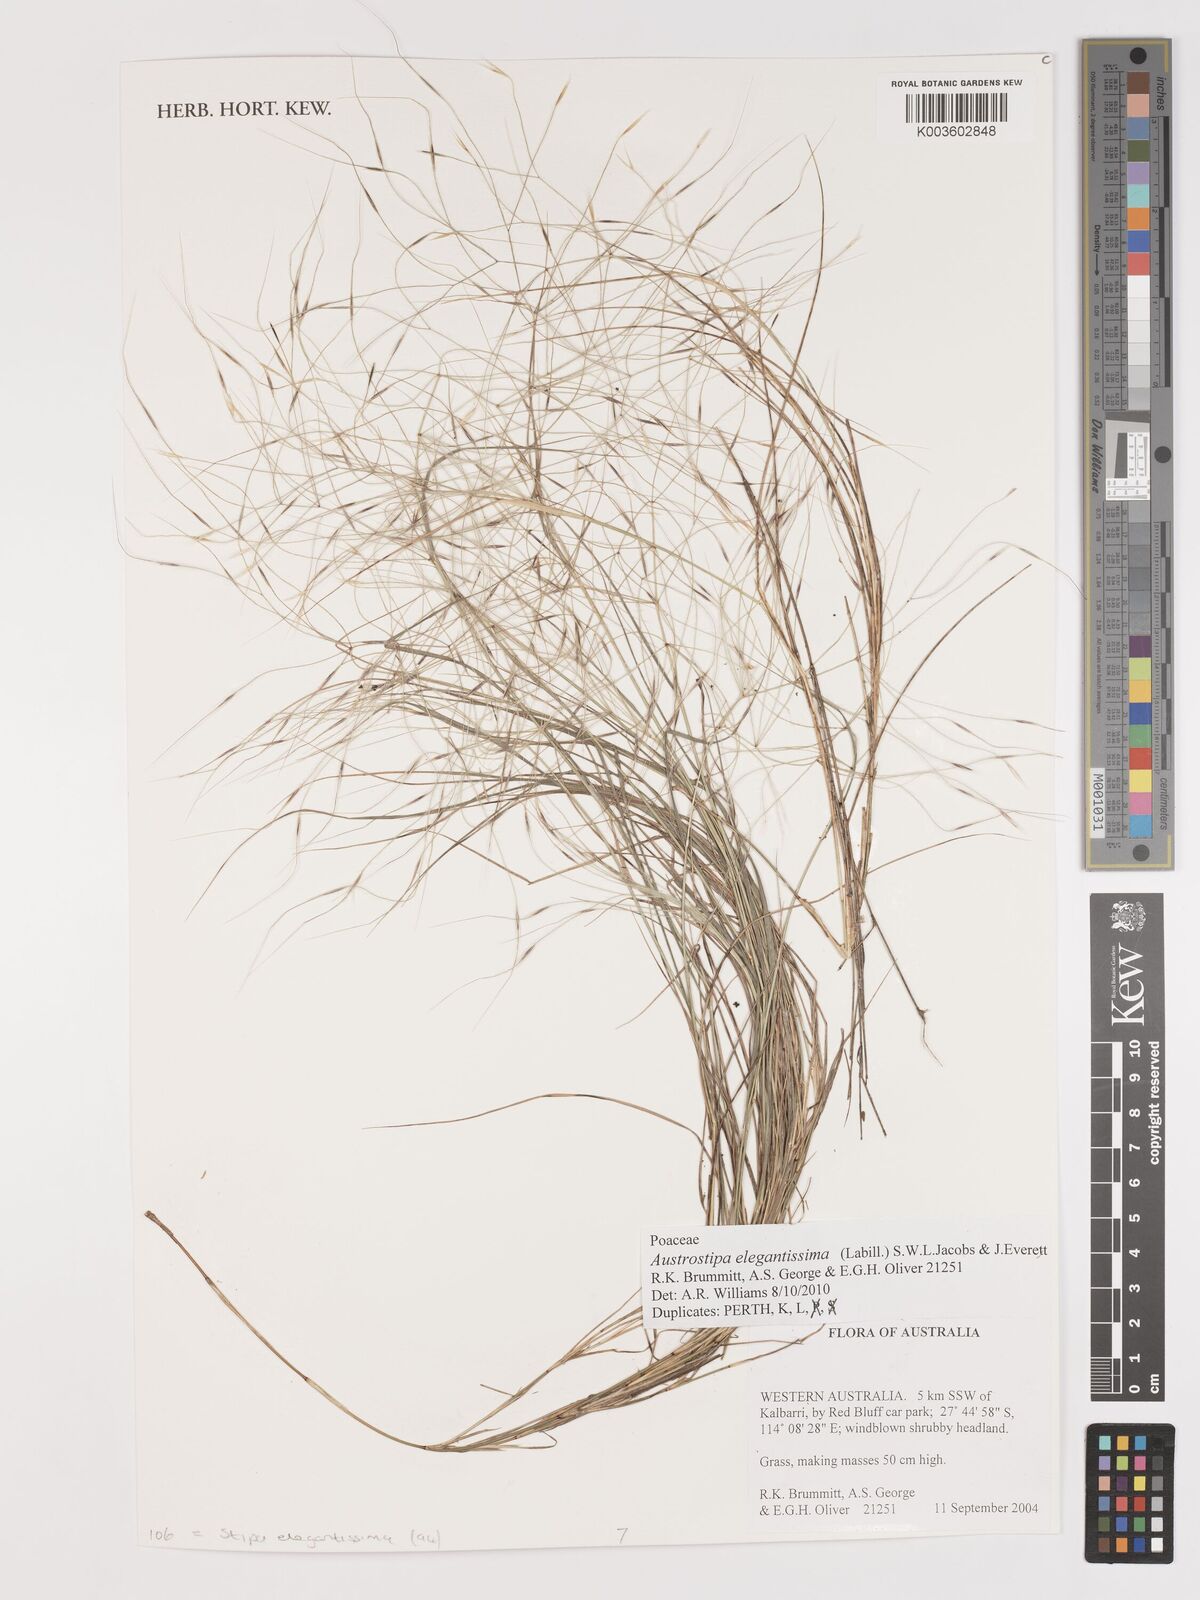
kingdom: Plantae
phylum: Tracheophyta
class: Liliopsida
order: Poales
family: Poaceae
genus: Austrostipa
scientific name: Austrostipa elegantissima
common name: Feather spear grass
